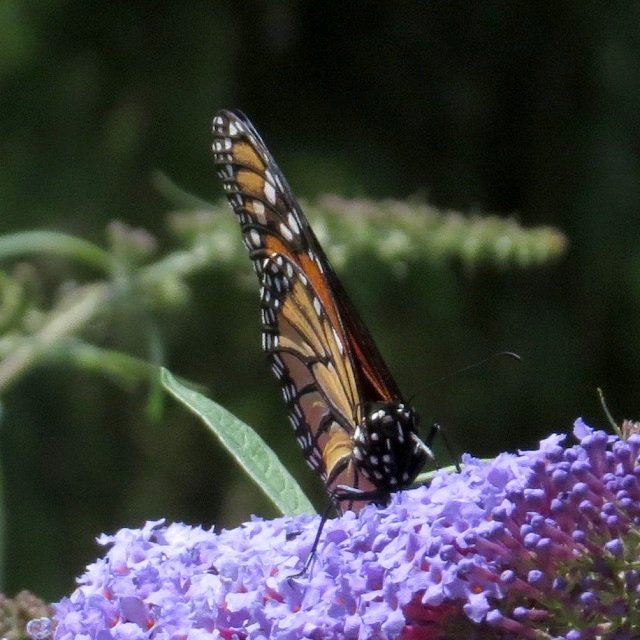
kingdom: Animalia
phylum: Arthropoda
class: Insecta
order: Lepidoptera
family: Nymphalidae
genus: Danaus
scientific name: Danaus plexippus
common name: Monarch
